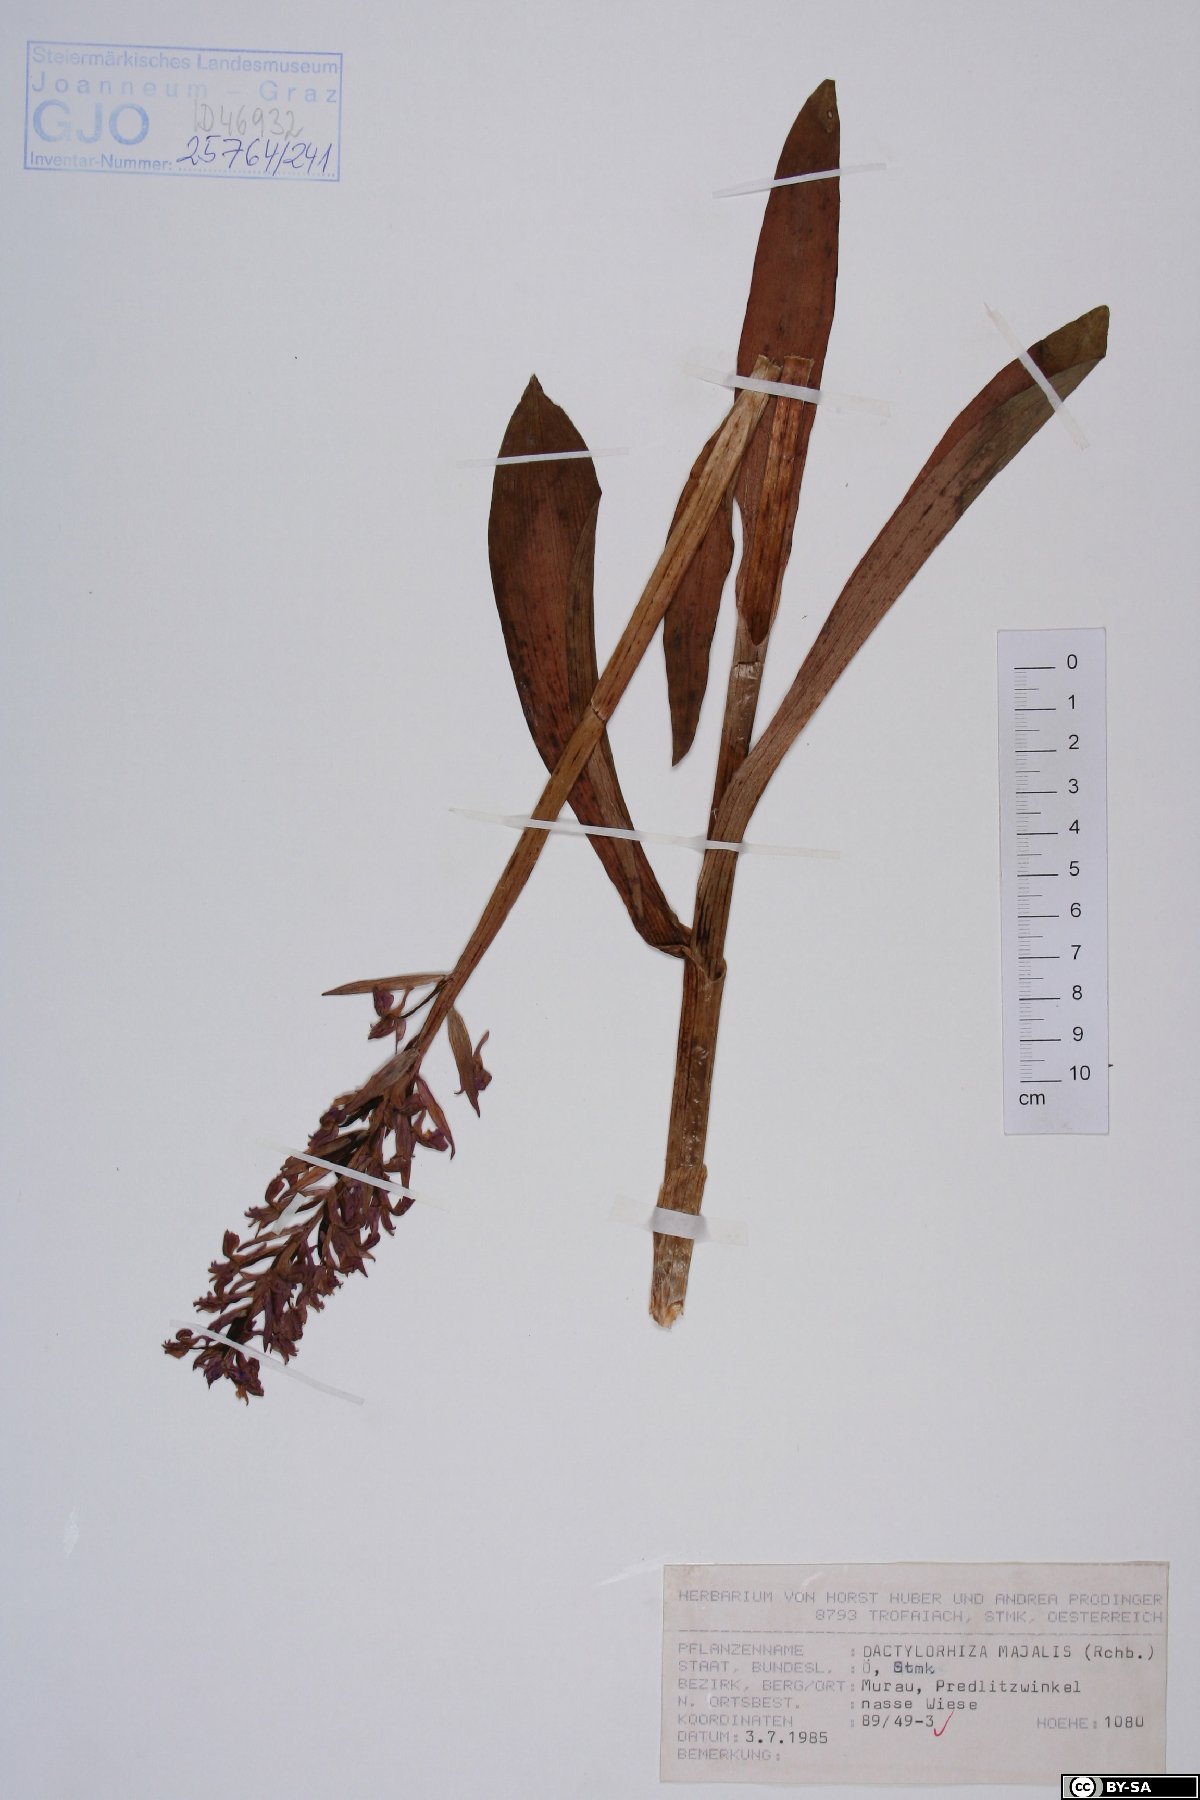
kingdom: Plantae
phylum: Tracheophyta
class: Liliopsida
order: Asparagales
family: Orchidaceae
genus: Dactylorhiza
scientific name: Dactylorhiza majalis
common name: Marsh orchid
